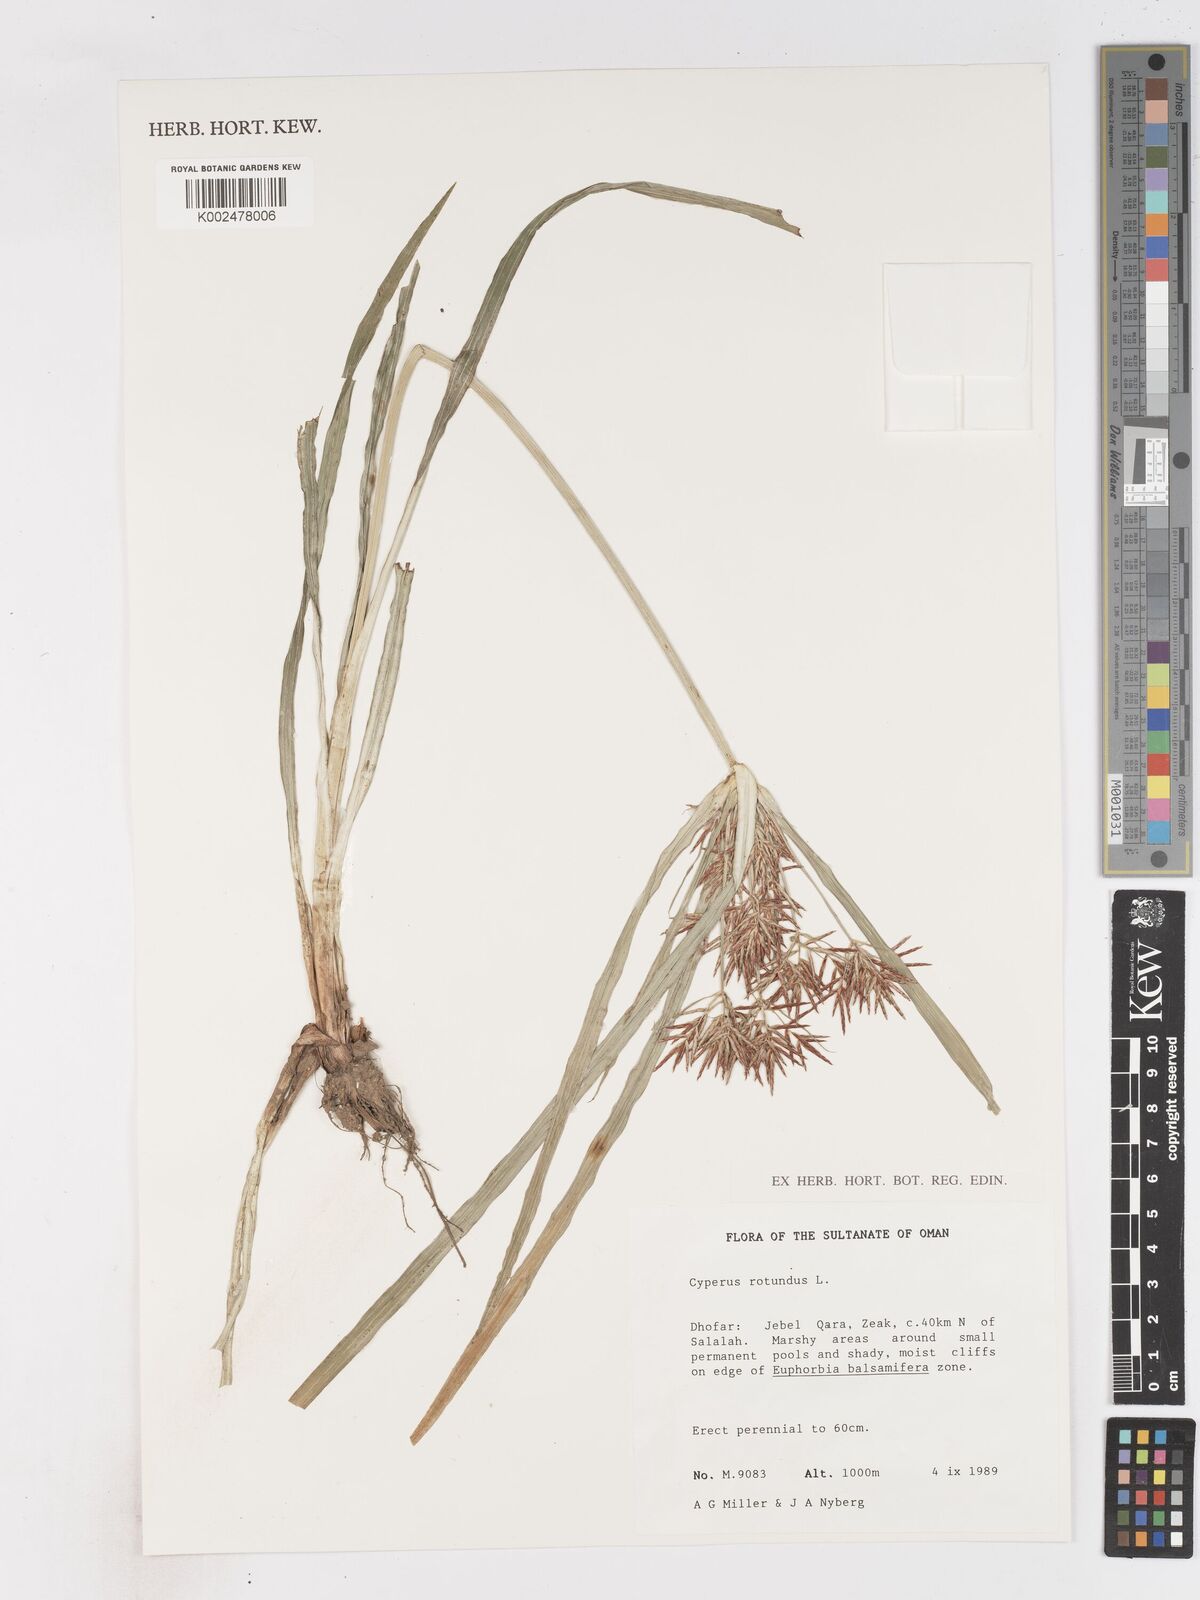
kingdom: Plantae
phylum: Tracheophyta
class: Liliopsida
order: Poales
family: Cyperaceae
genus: Cyperus
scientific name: Cyperus rotundus
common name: Nutgrass
